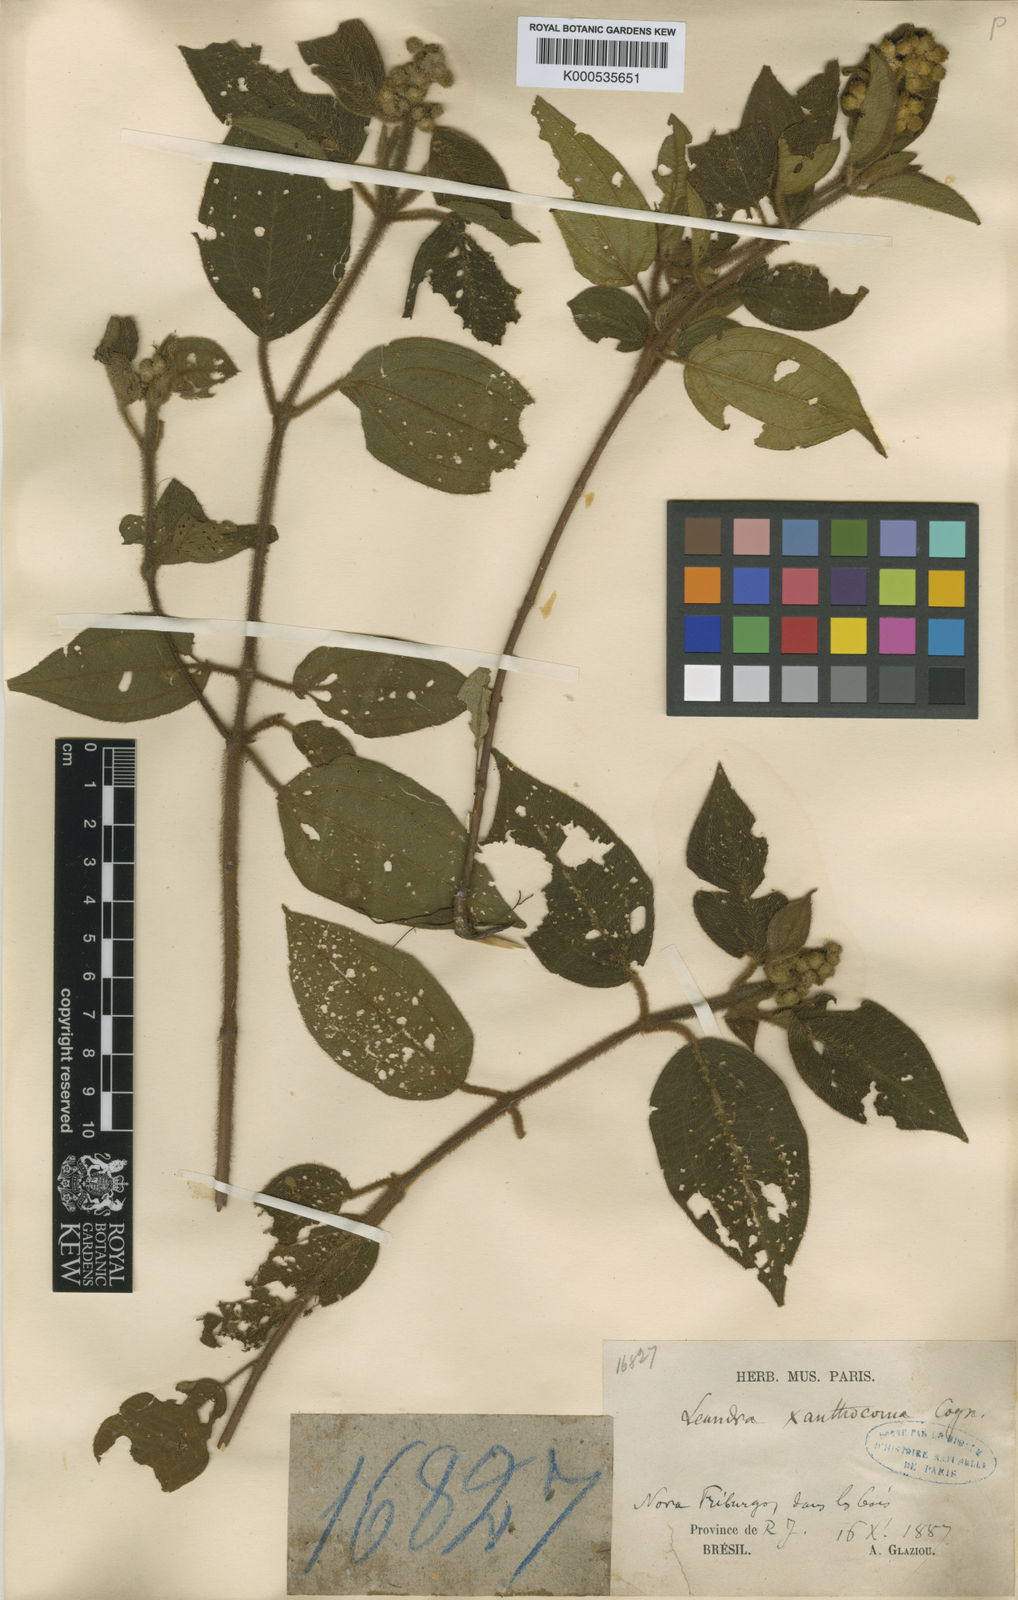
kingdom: Plantae
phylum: Tracheophyta
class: Magnoliopsida
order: Myrtales
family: Melastomataceae
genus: Miconia
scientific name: Miconia xanthocoma
